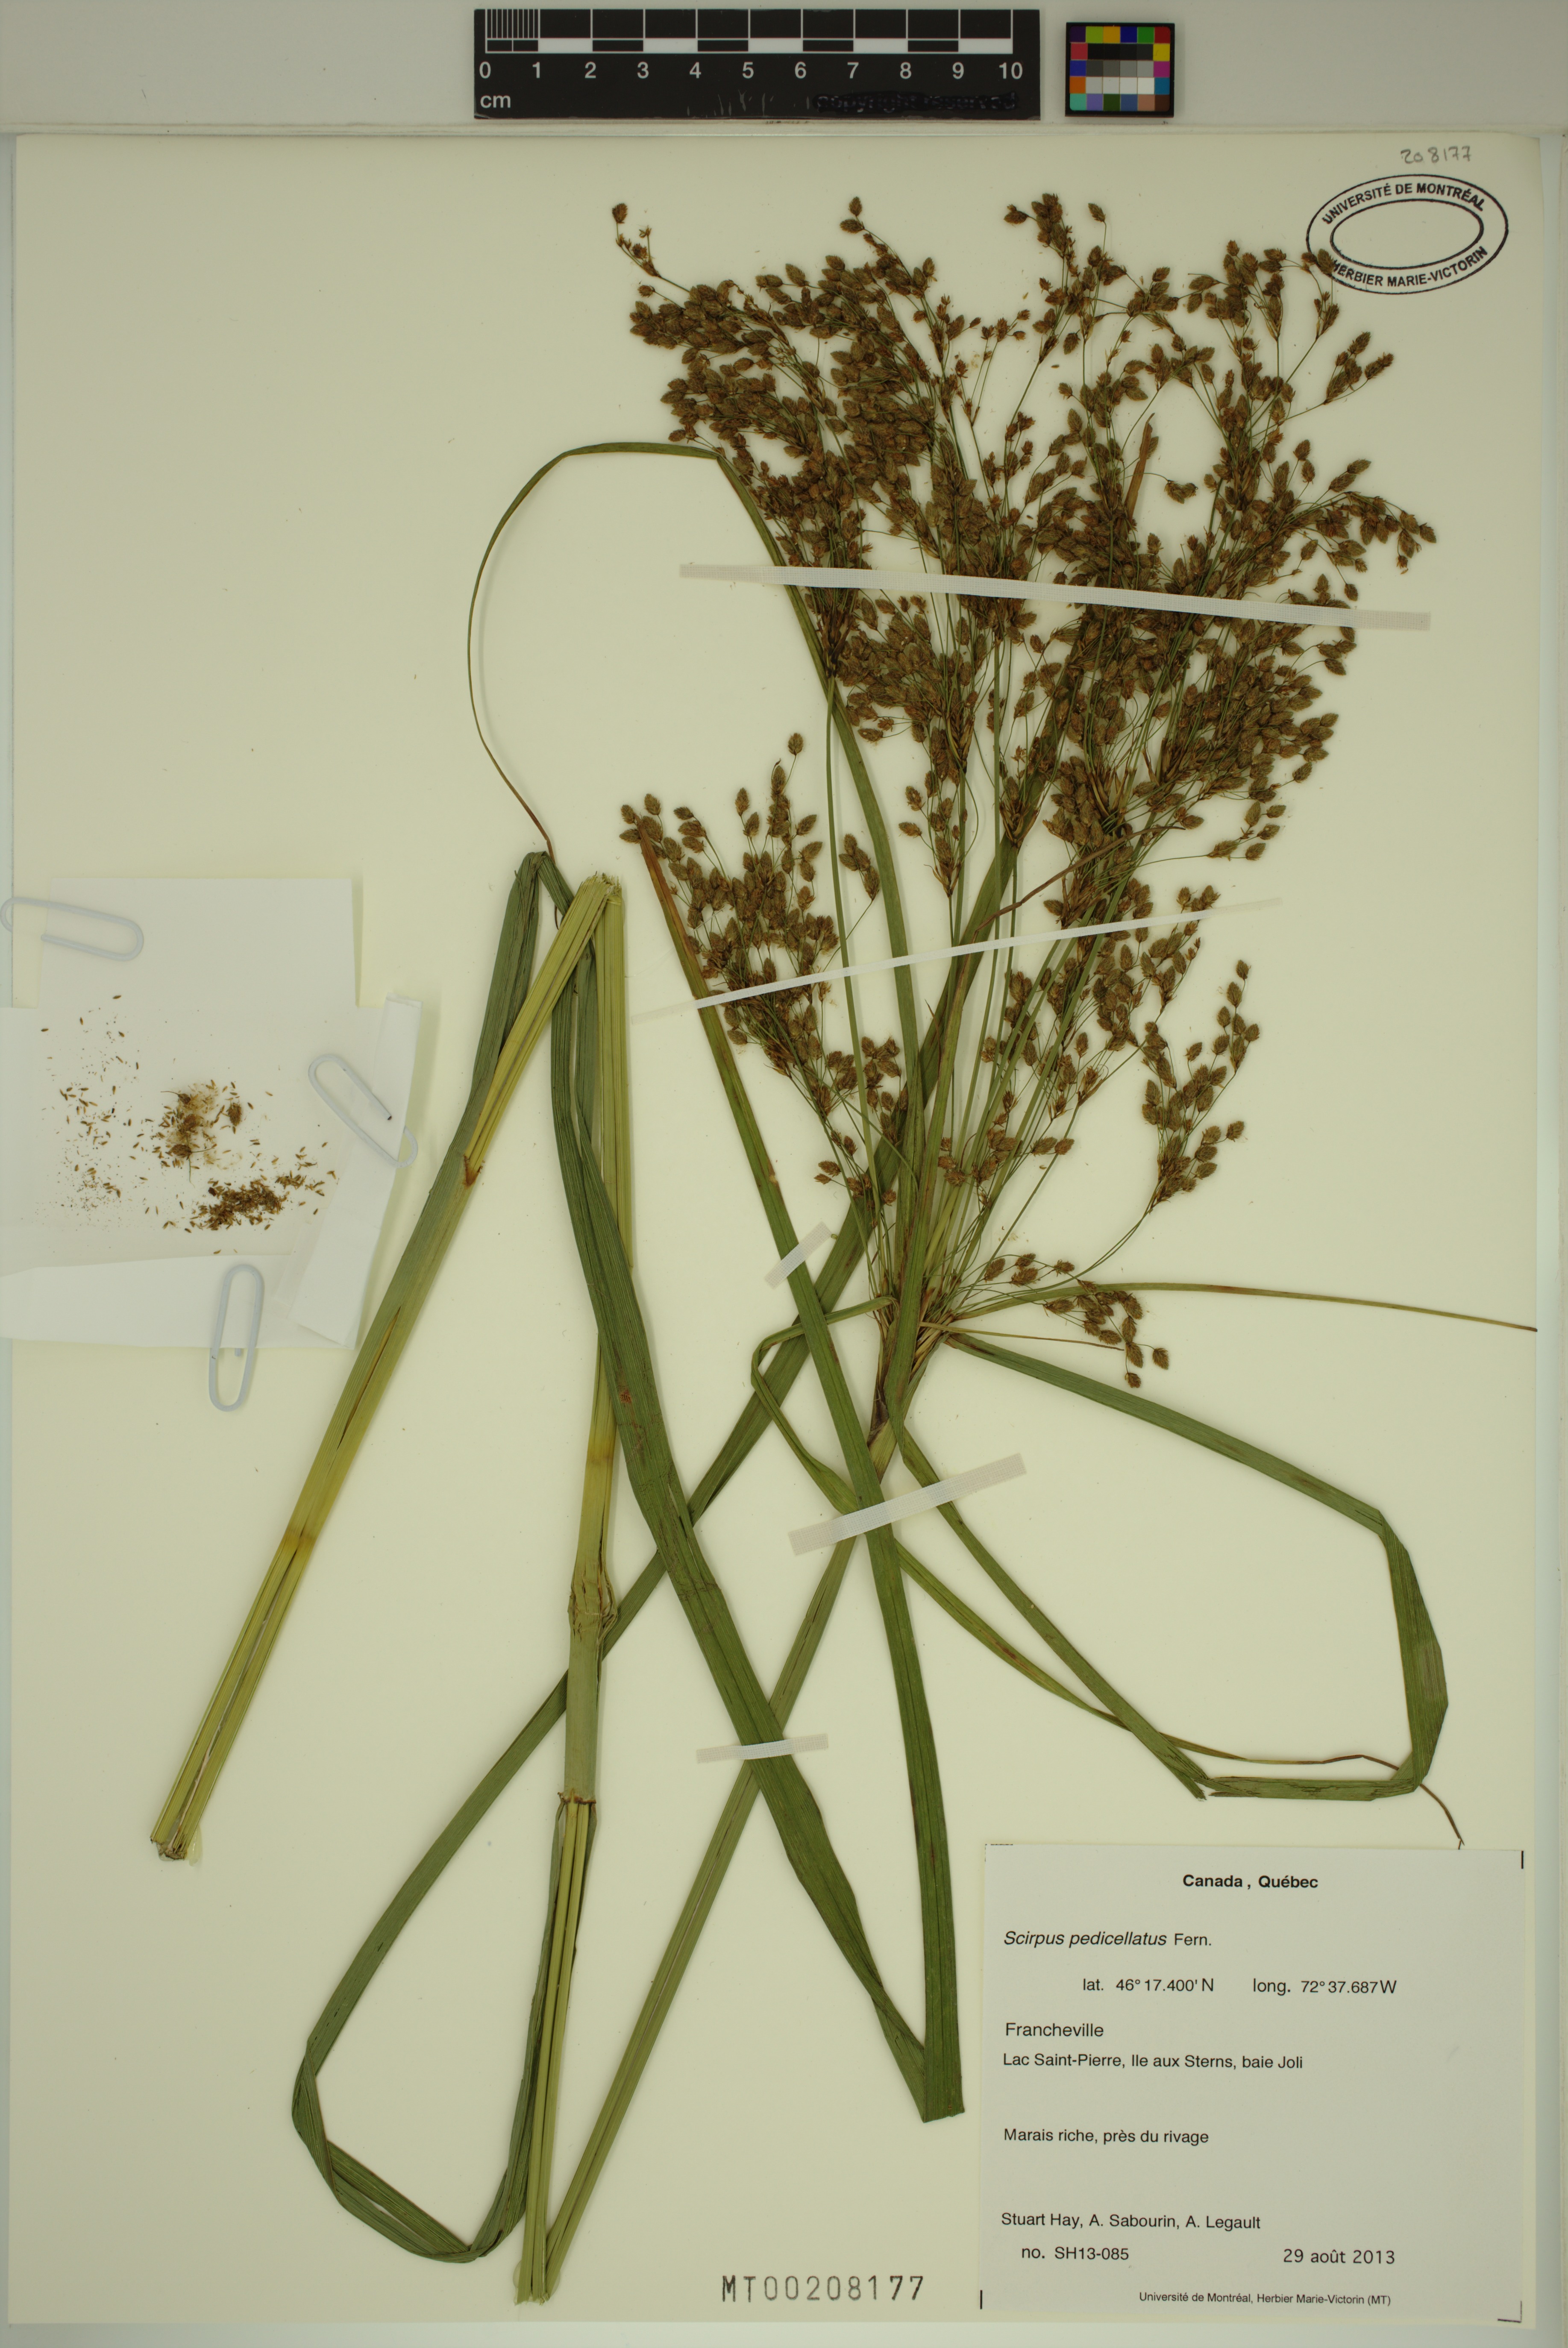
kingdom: Plantae
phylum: Tracheophyta
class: Liliopsida
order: Poales
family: Cyperaceae
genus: Scirpus
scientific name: Scirpus pedicellatus
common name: Pedicelled bulrush
